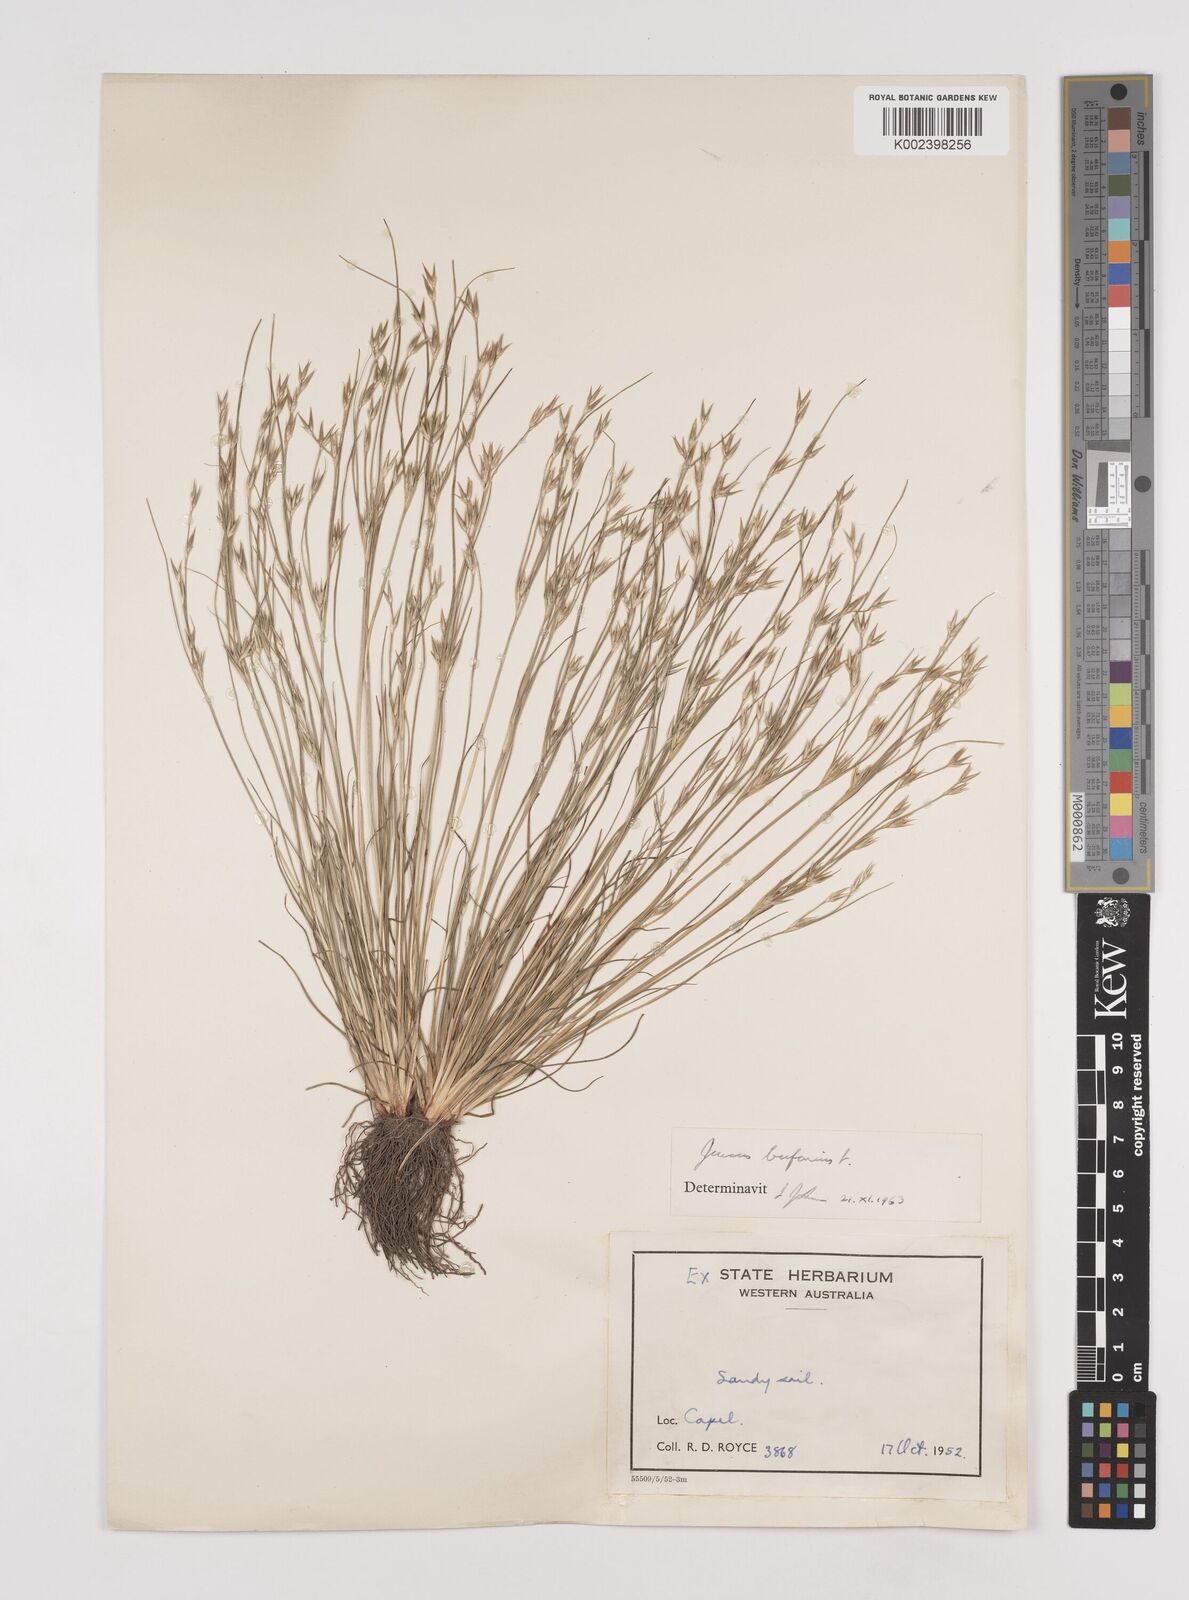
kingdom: Plantae
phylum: Tracheophyta
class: Liliopsida
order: Poales
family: Juncaceae
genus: Juncus
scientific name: Juncus bufonius
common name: Toad rush
